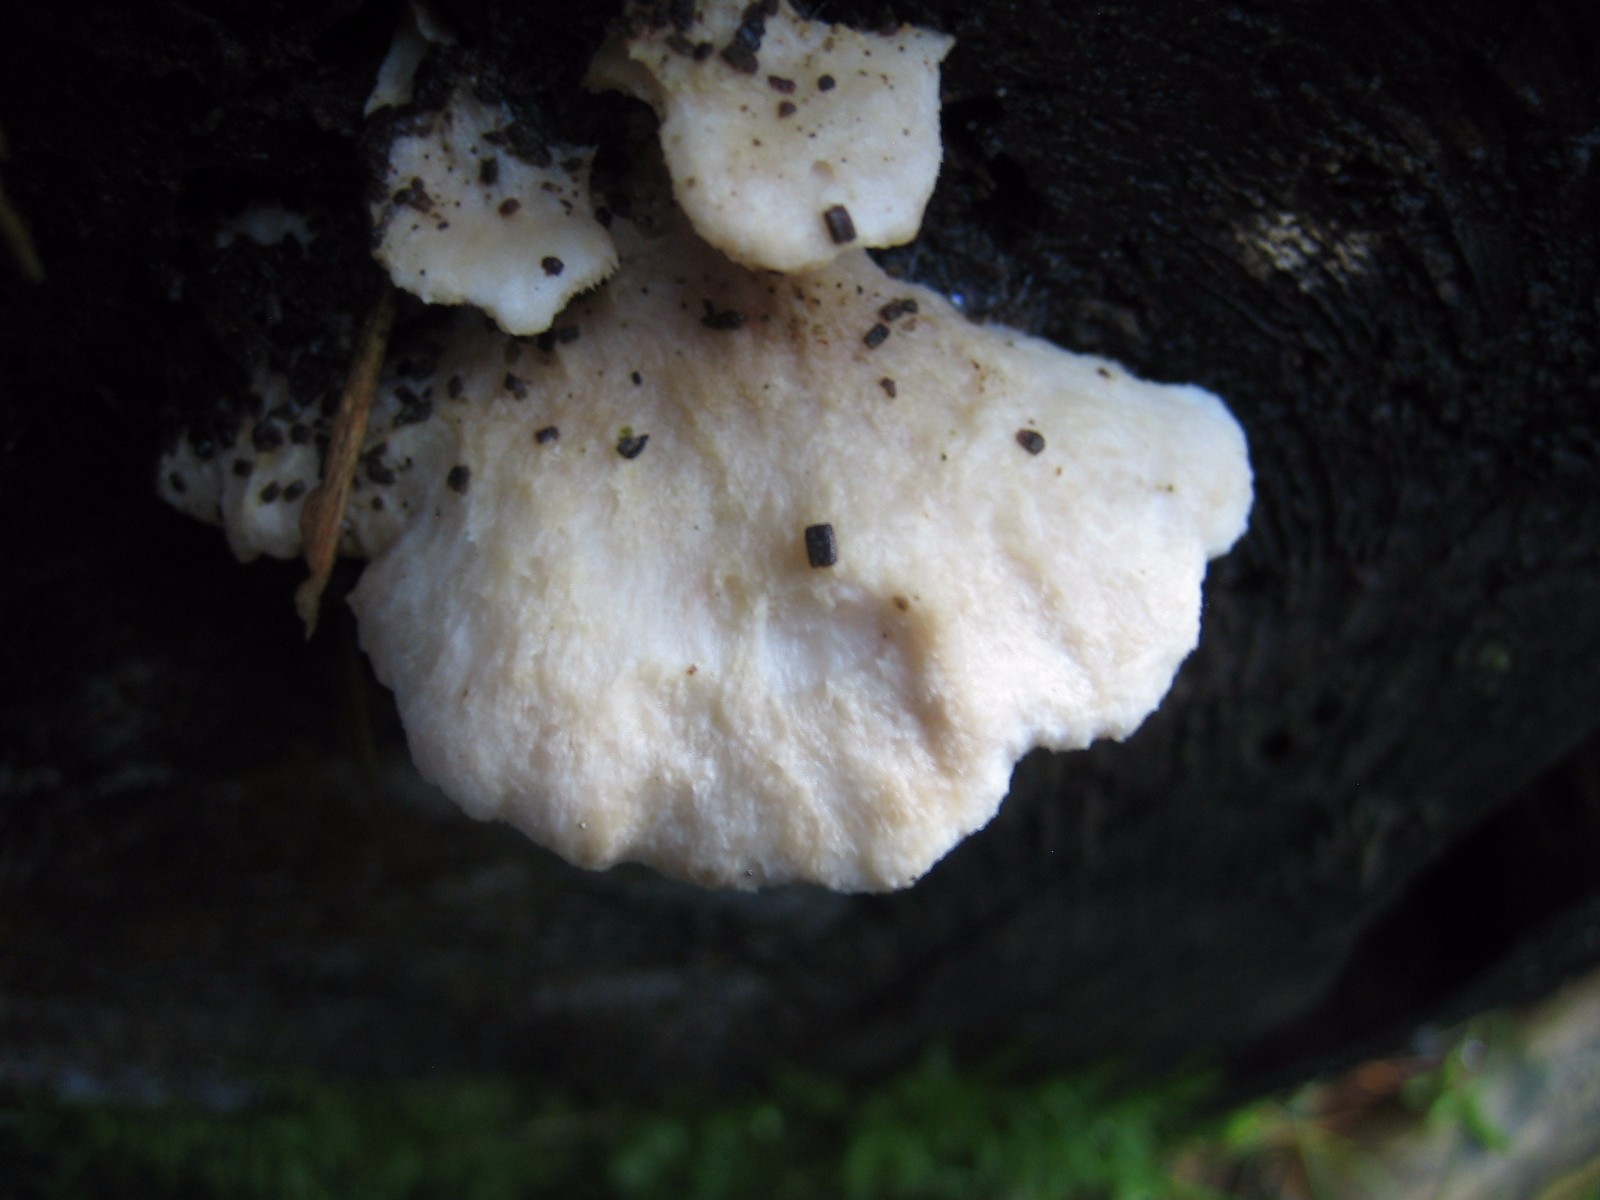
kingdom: Fungi
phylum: Basidiomycota
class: Agaricomycetes
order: Polyporales
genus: Amaropostia
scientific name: Amaropostia stiptica
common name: bitter kødporesvamp
